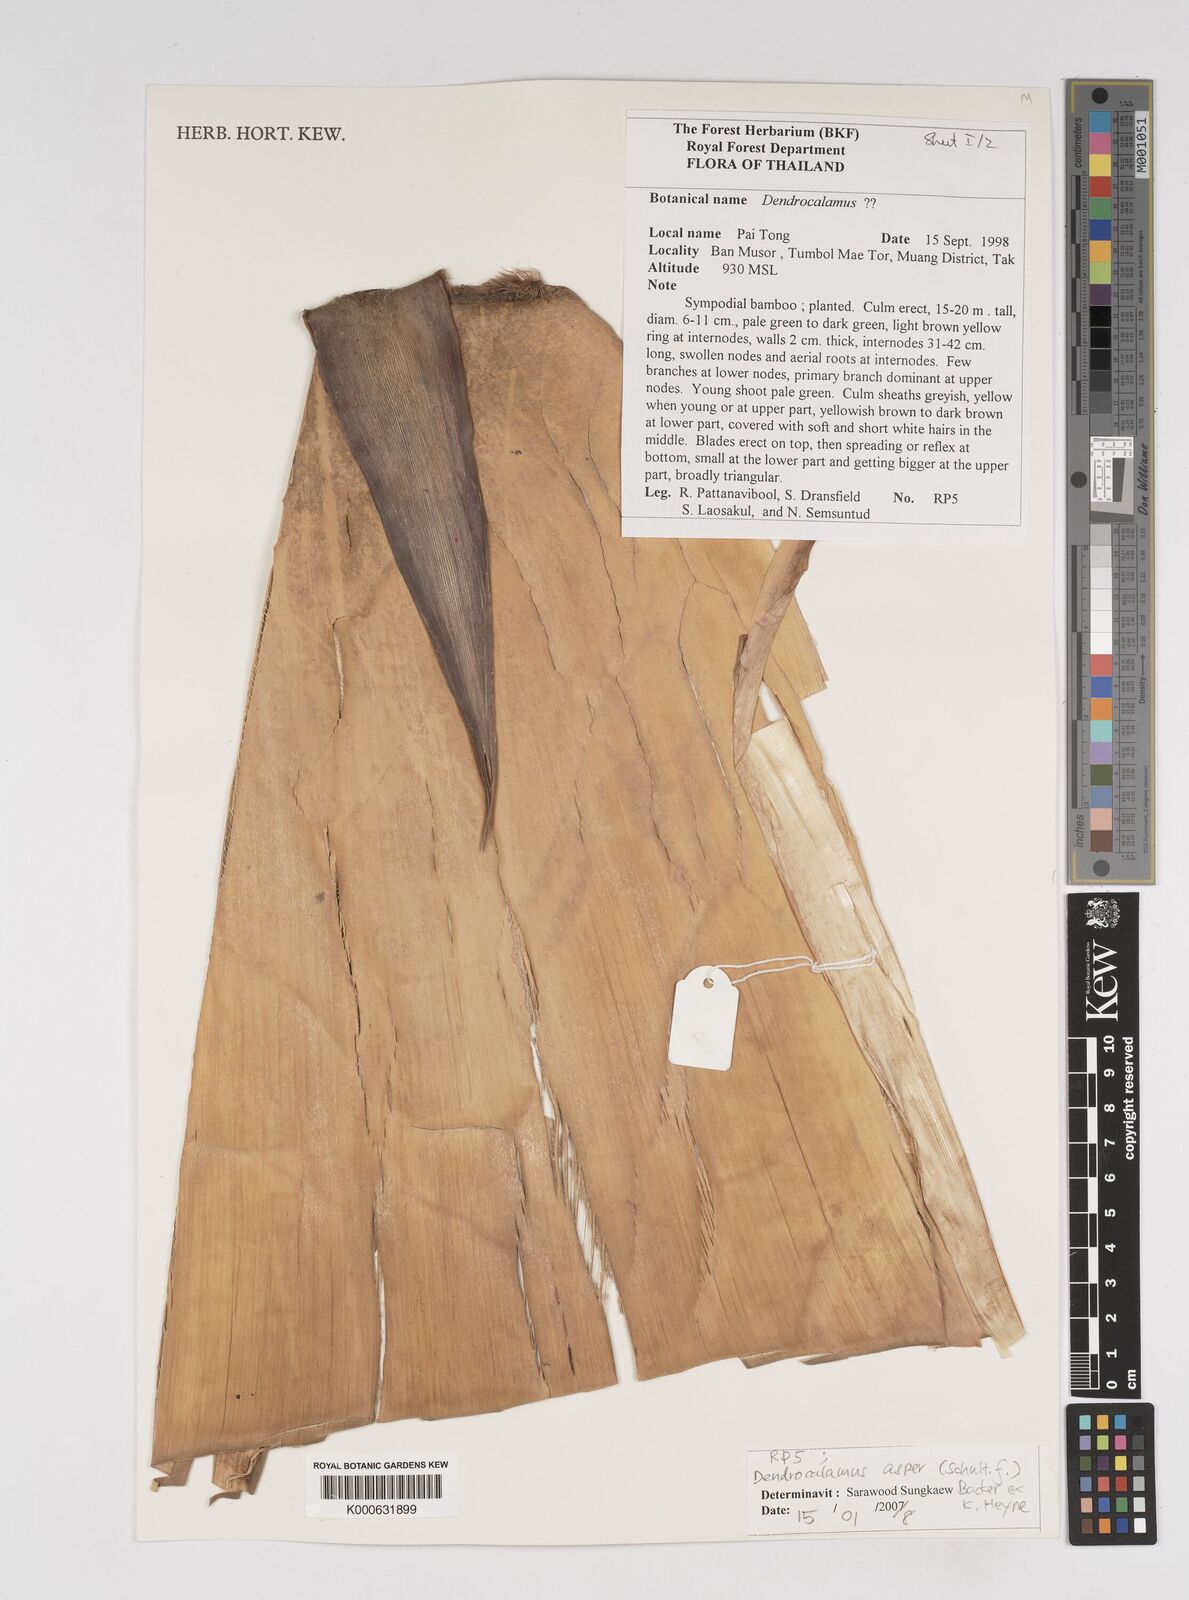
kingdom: Plantae
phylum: Tracheophyta
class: Liliopsida
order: Poales
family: Poaceae
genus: Dendrocalamus
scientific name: Dendrocalamus
